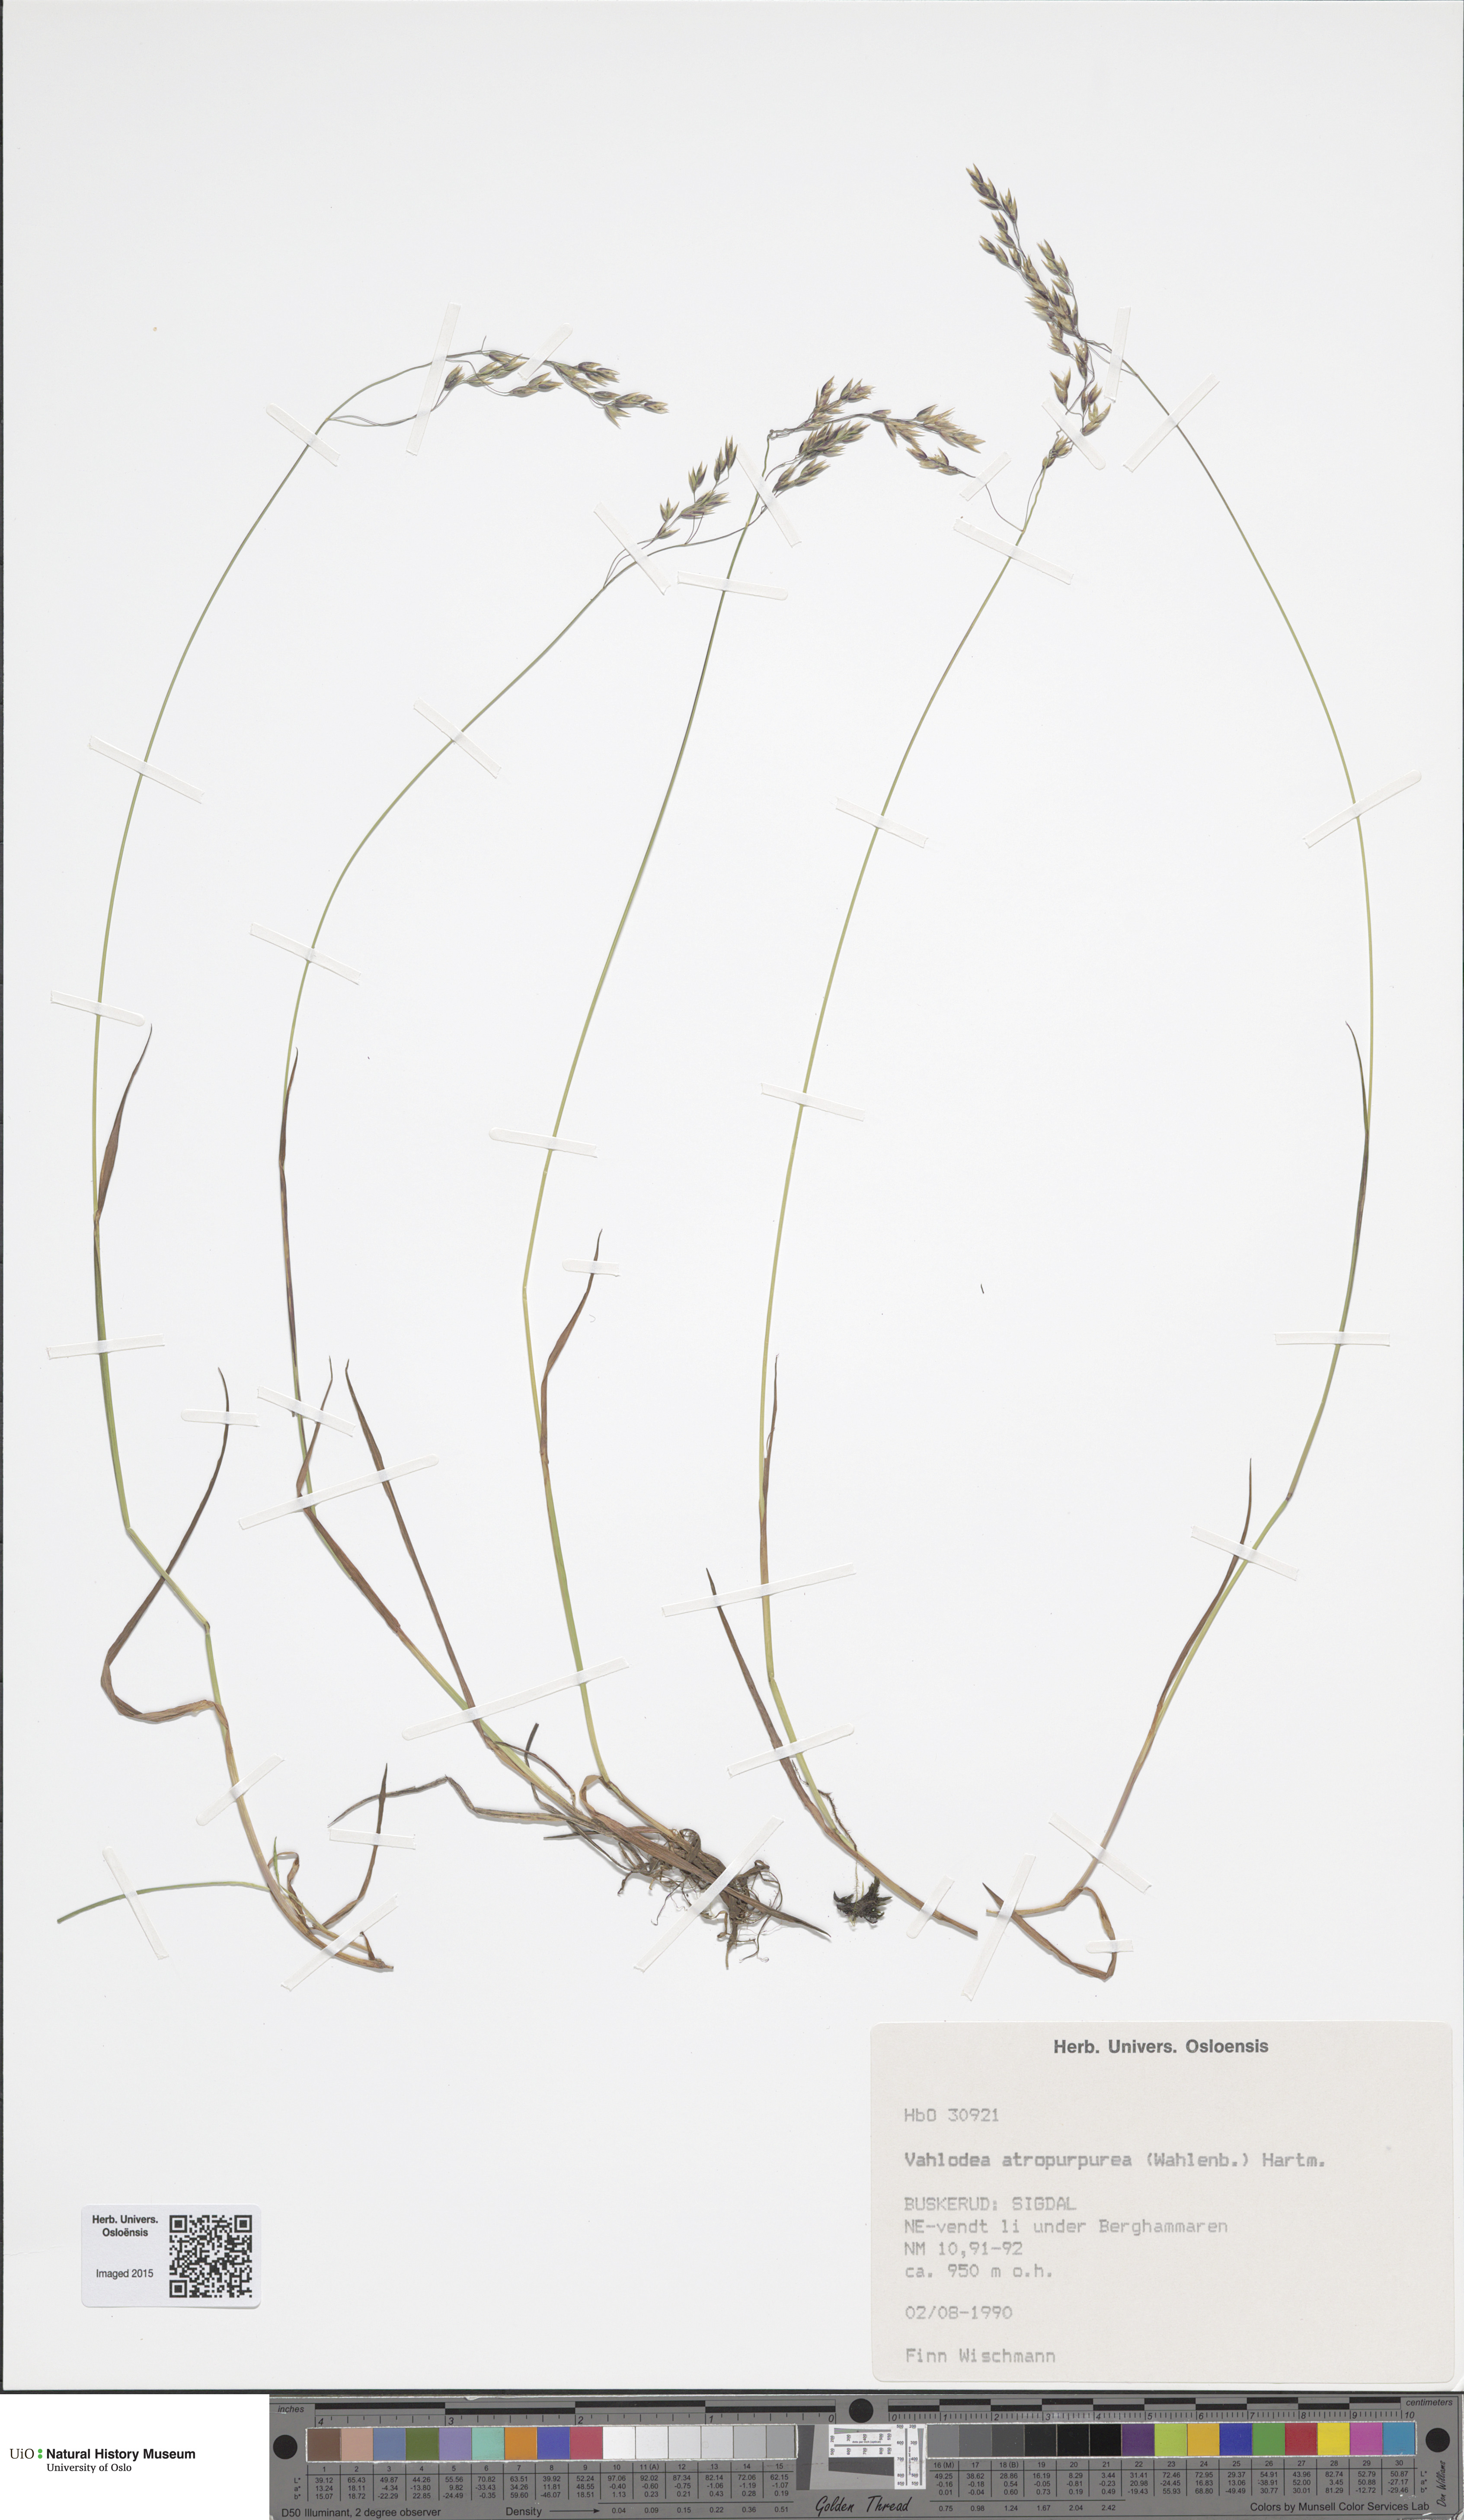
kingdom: Plantae
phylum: Tracheophyta
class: Liliopsida
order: Poales
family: Poaceae
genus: Vahlodea
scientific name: Vahlodea atropurpurea
